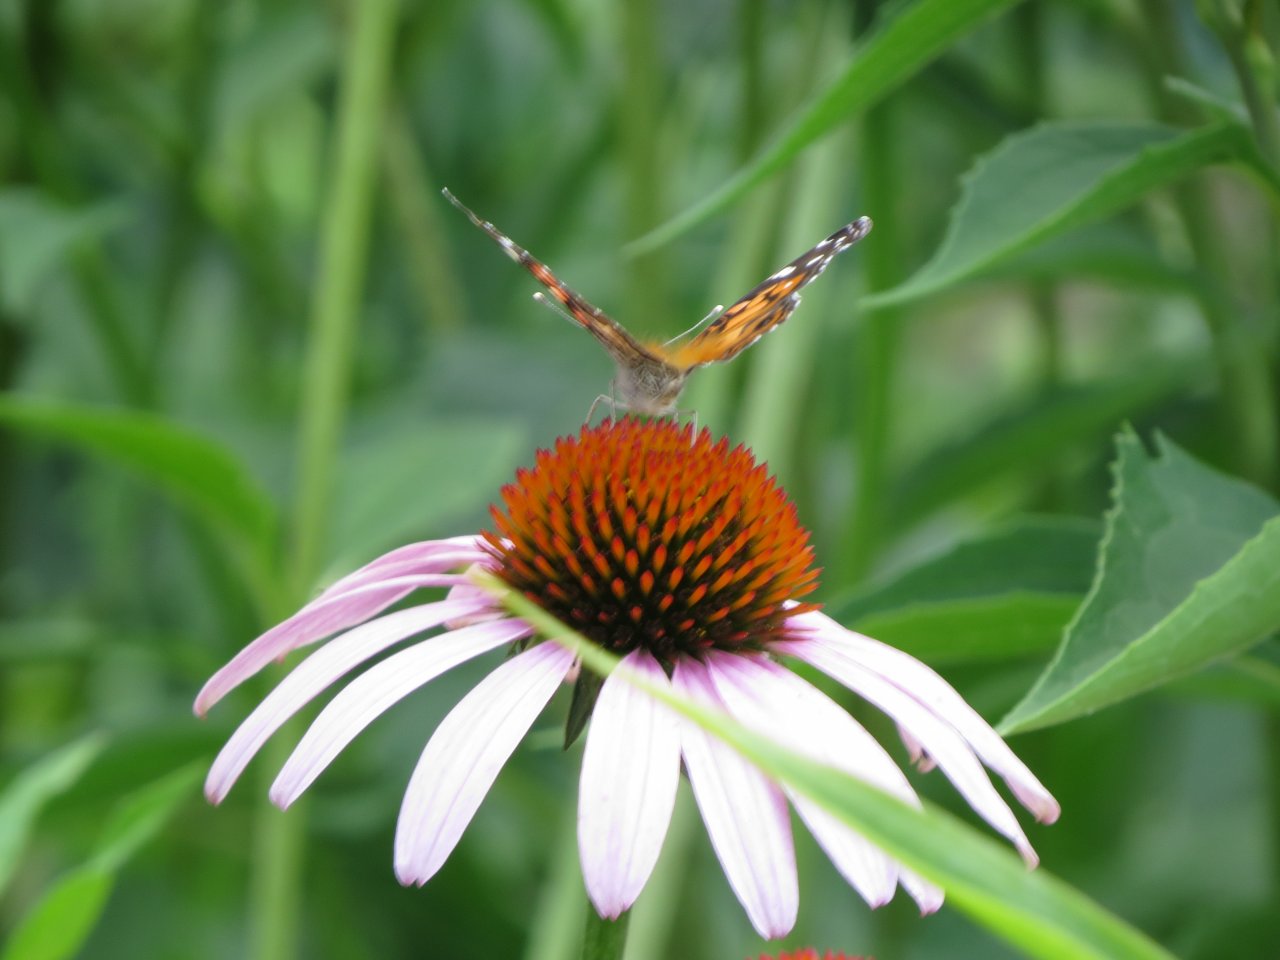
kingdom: Animalia
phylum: Arthropoda
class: Insecta
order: Lepidoptera
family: Nymphalidae
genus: Vanessa
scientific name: Vanessa virginiensis
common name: American Lady
